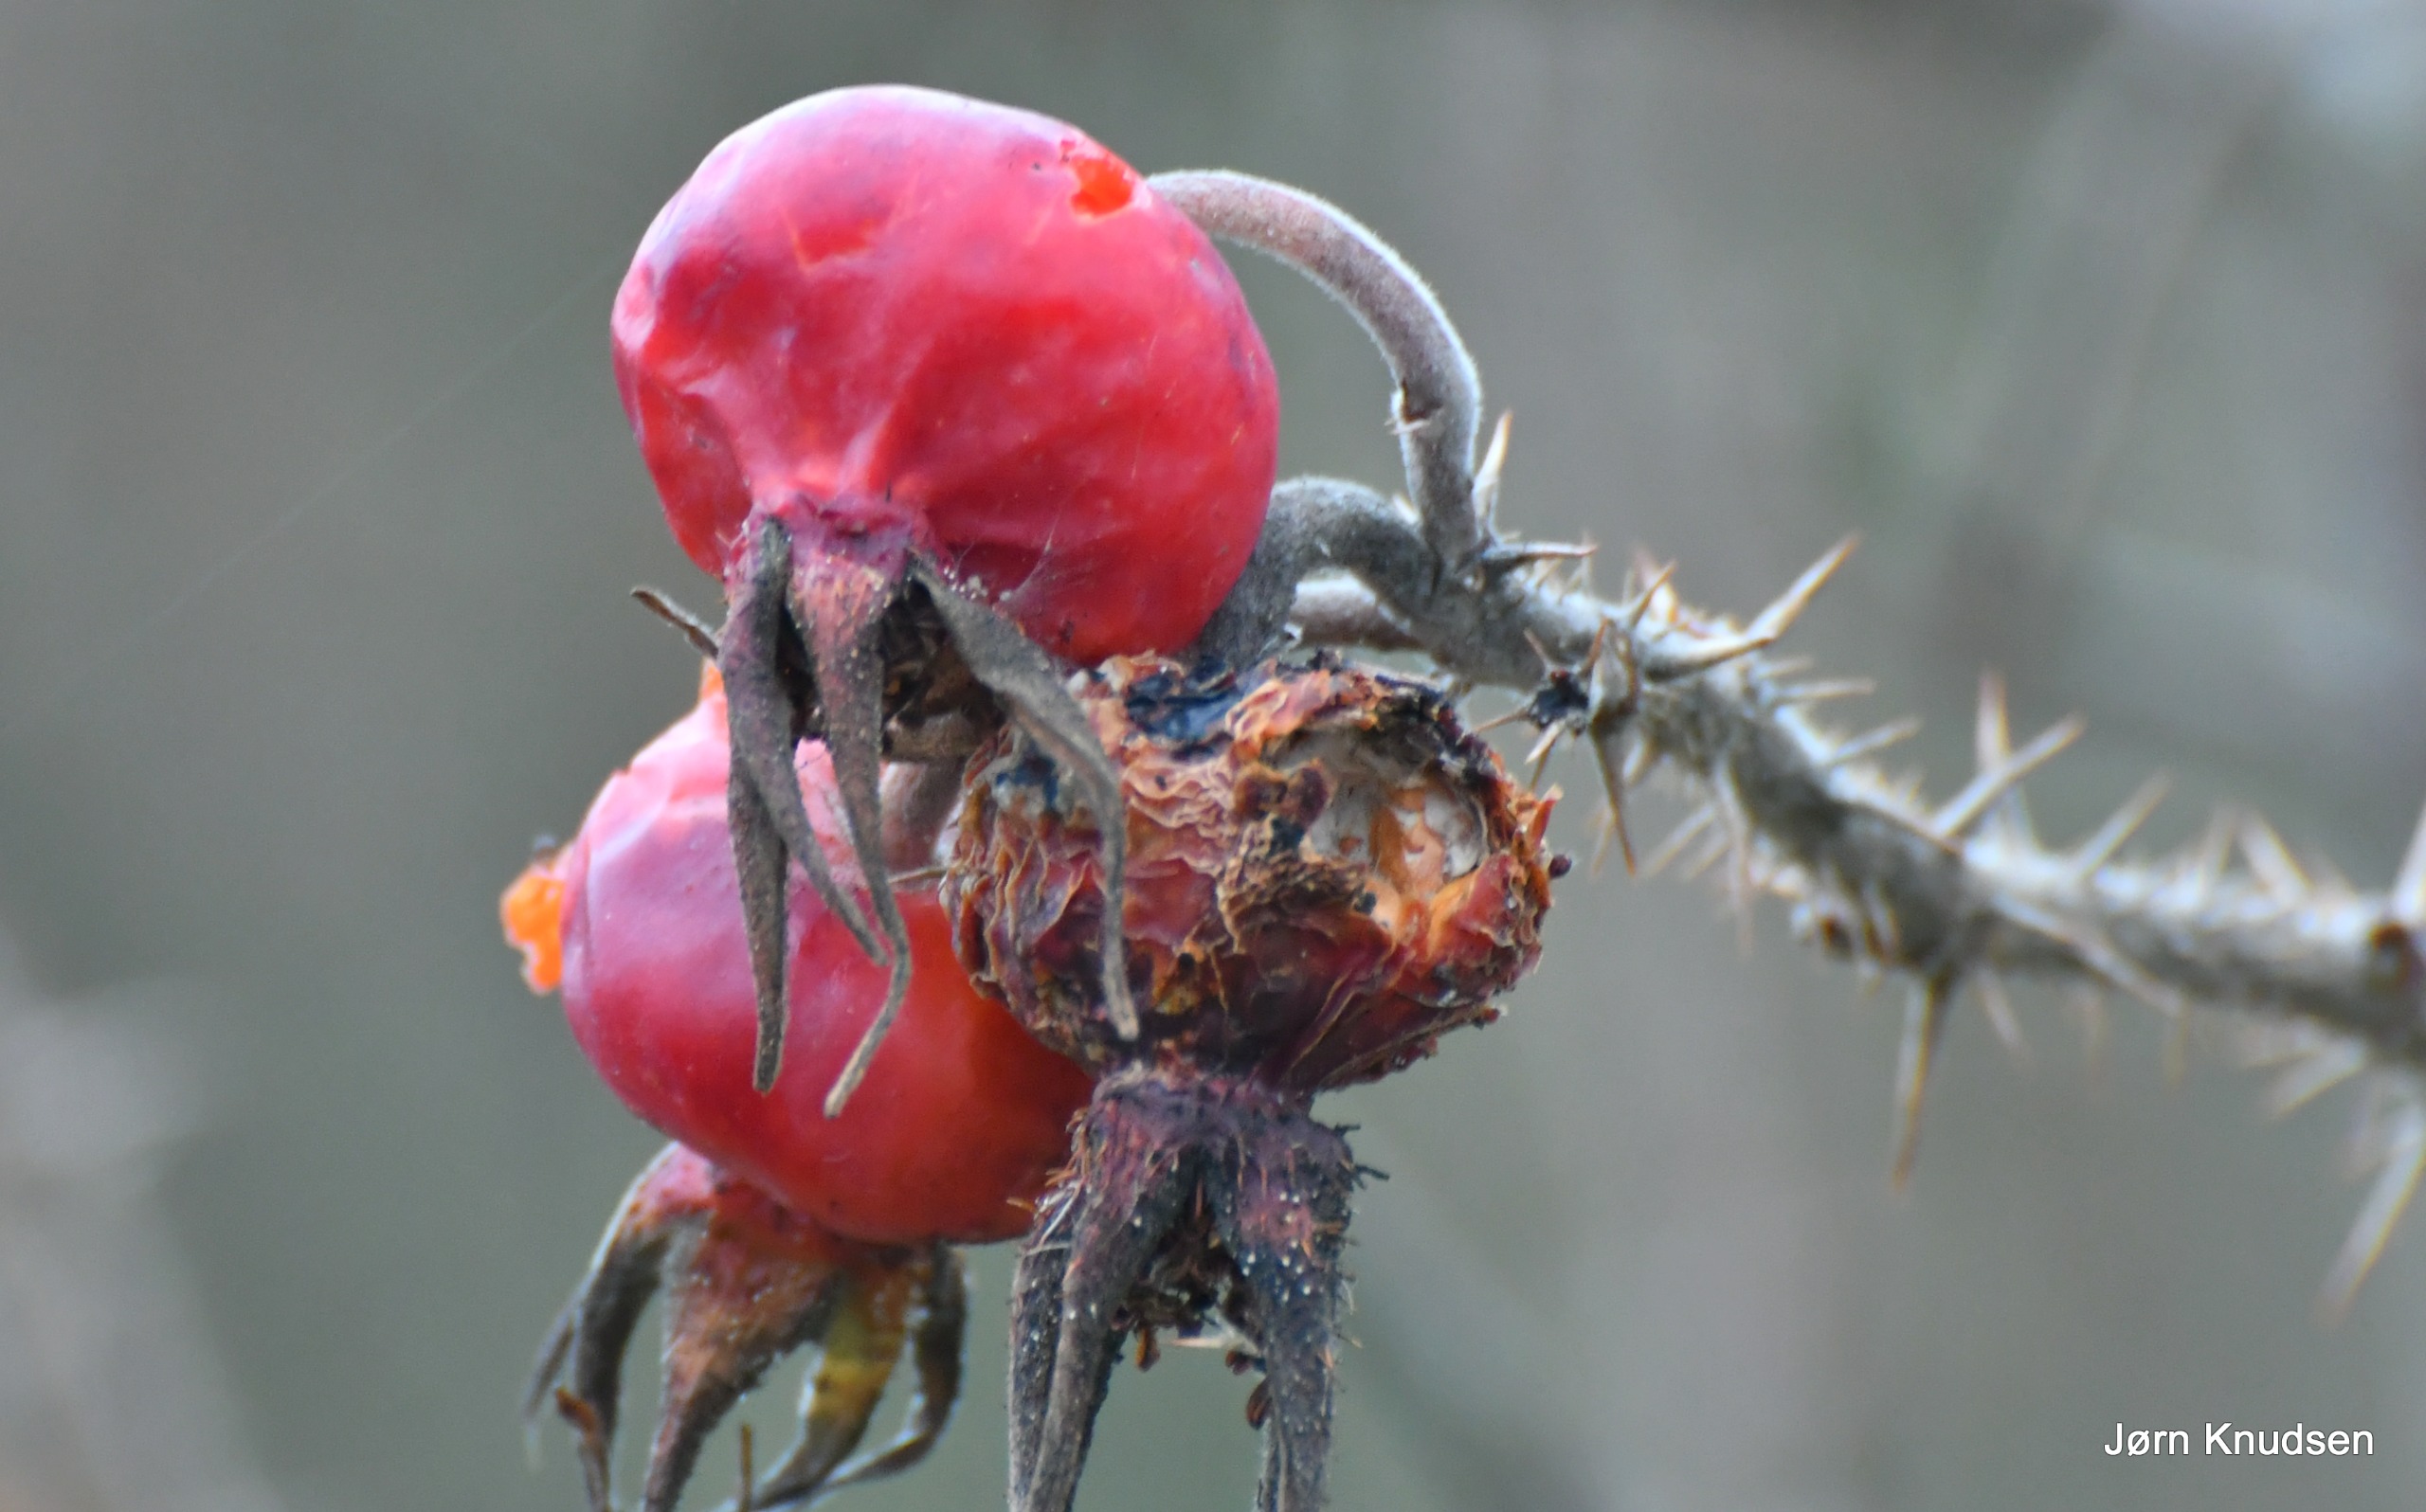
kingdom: Plantae
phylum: Tracheophyta
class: Magnoliopsida
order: Rosales
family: Rosaceae
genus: Rosa
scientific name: Rosa rugosa
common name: Rynket rose
